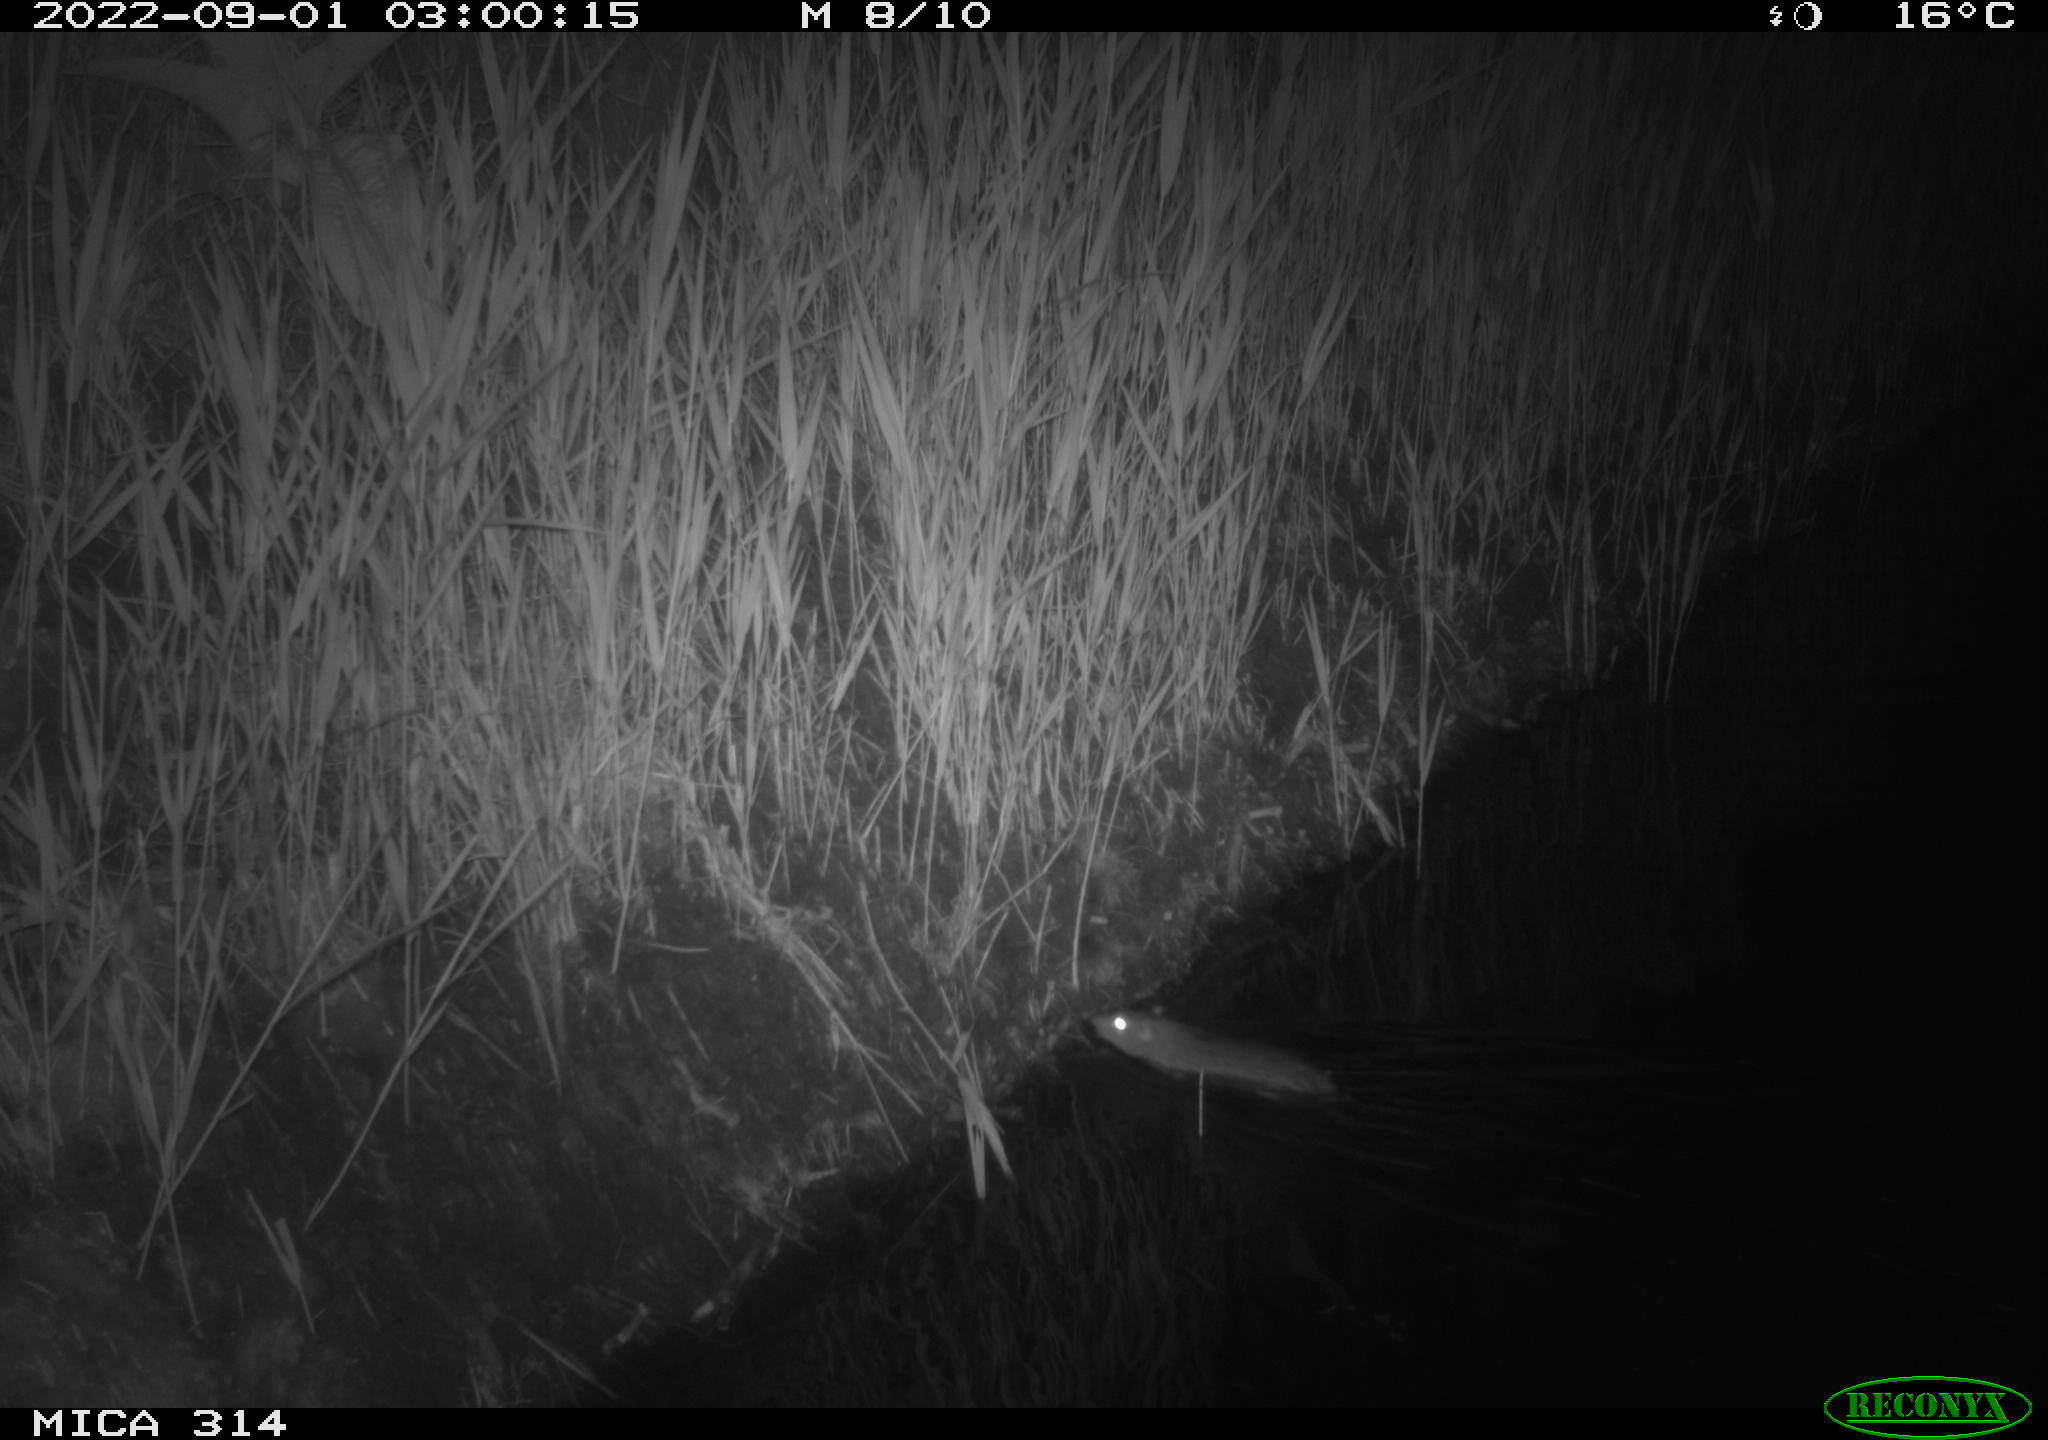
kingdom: Animalia
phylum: Chordata
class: Mammalia
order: Rodentia
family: Muridae
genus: Rattus
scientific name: Rattus norvegicus
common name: Brown rat
